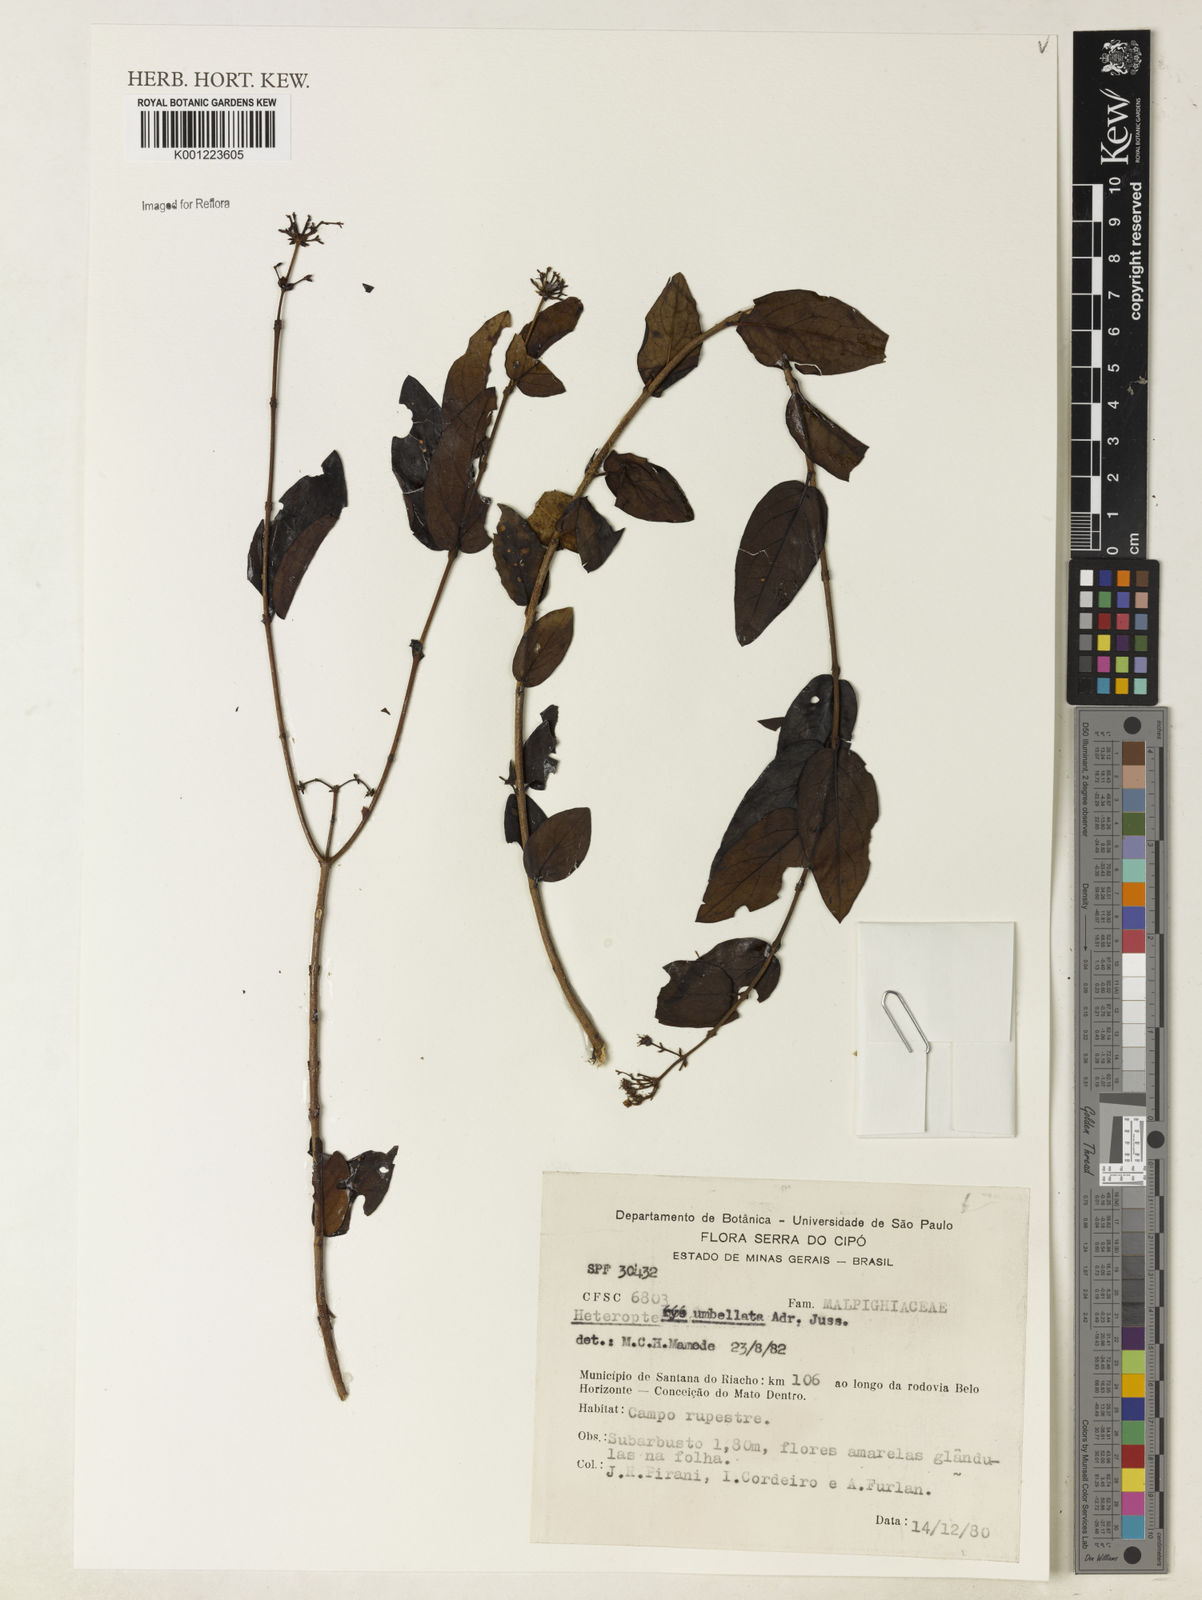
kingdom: Plantae
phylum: Tracheophyta
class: Magnoliopsida
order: Malpighiales
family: Malpighiaceae
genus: Heteropterys
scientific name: Heteropterys umbellata
